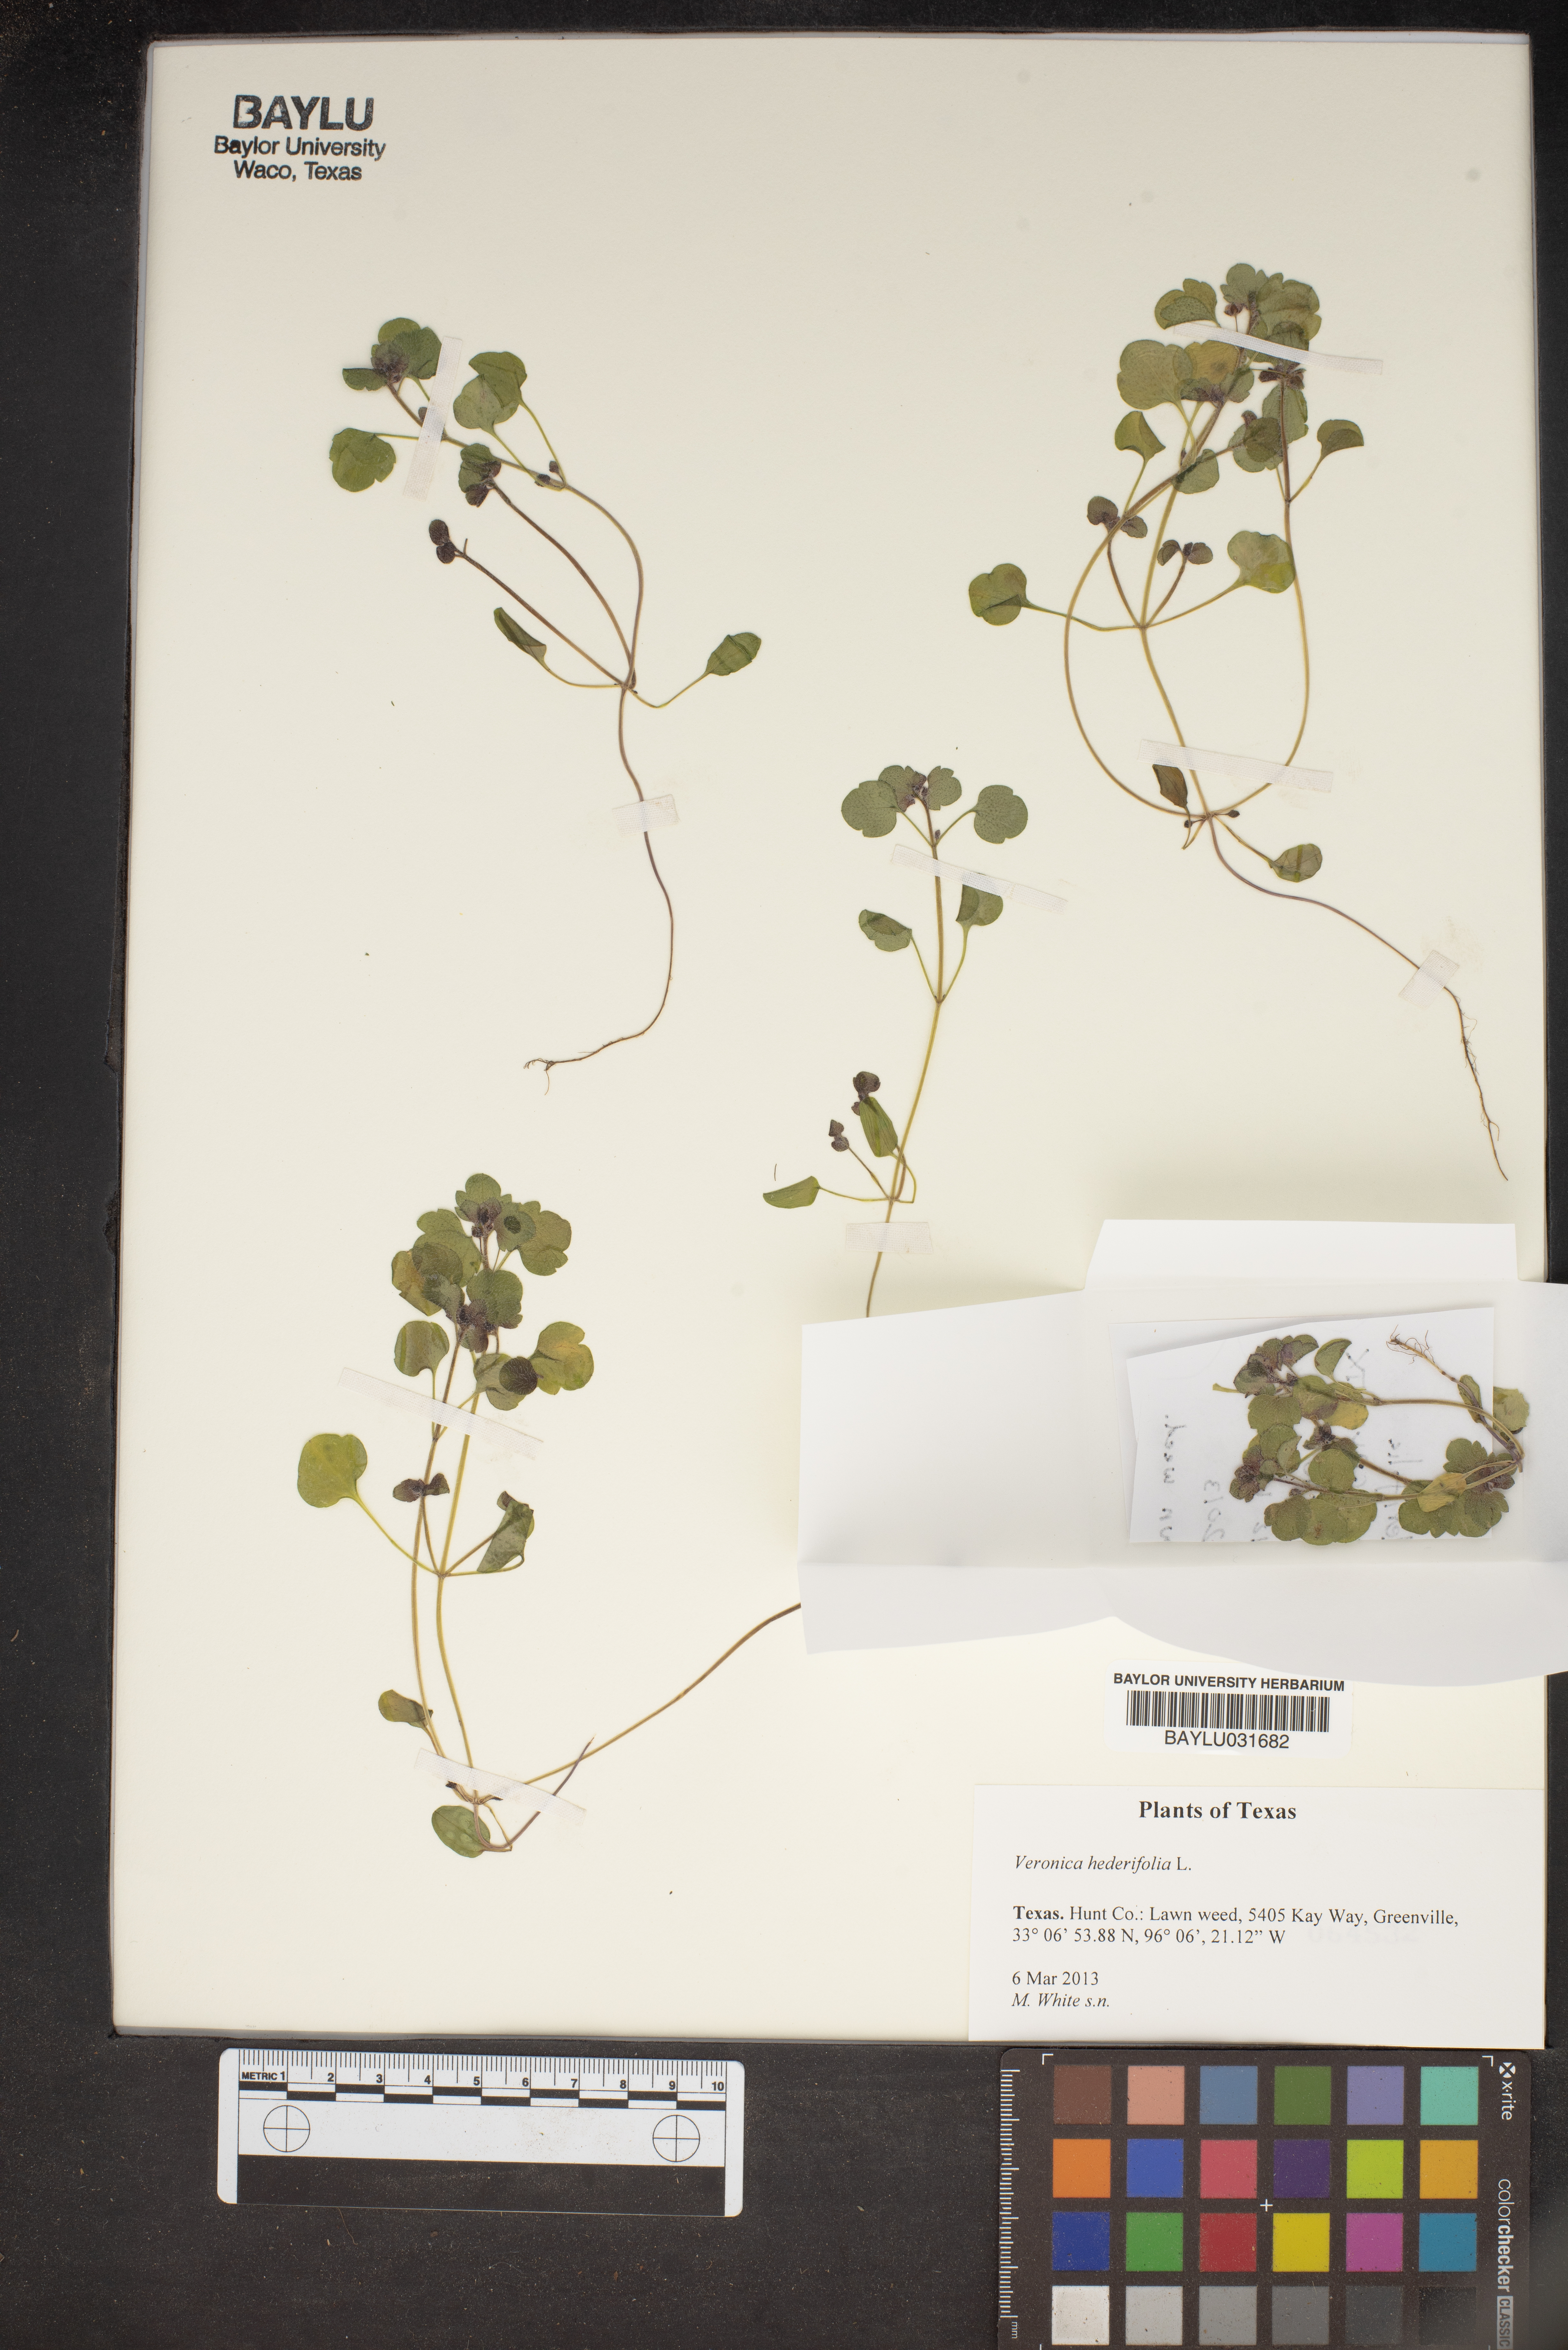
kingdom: Plantae
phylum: Tracheophyta
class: Magnoliopsida
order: Lamiales
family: Plantaginaceae
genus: Veronica
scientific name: Veronica hederifolia
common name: Ivy-leaved speedwell
